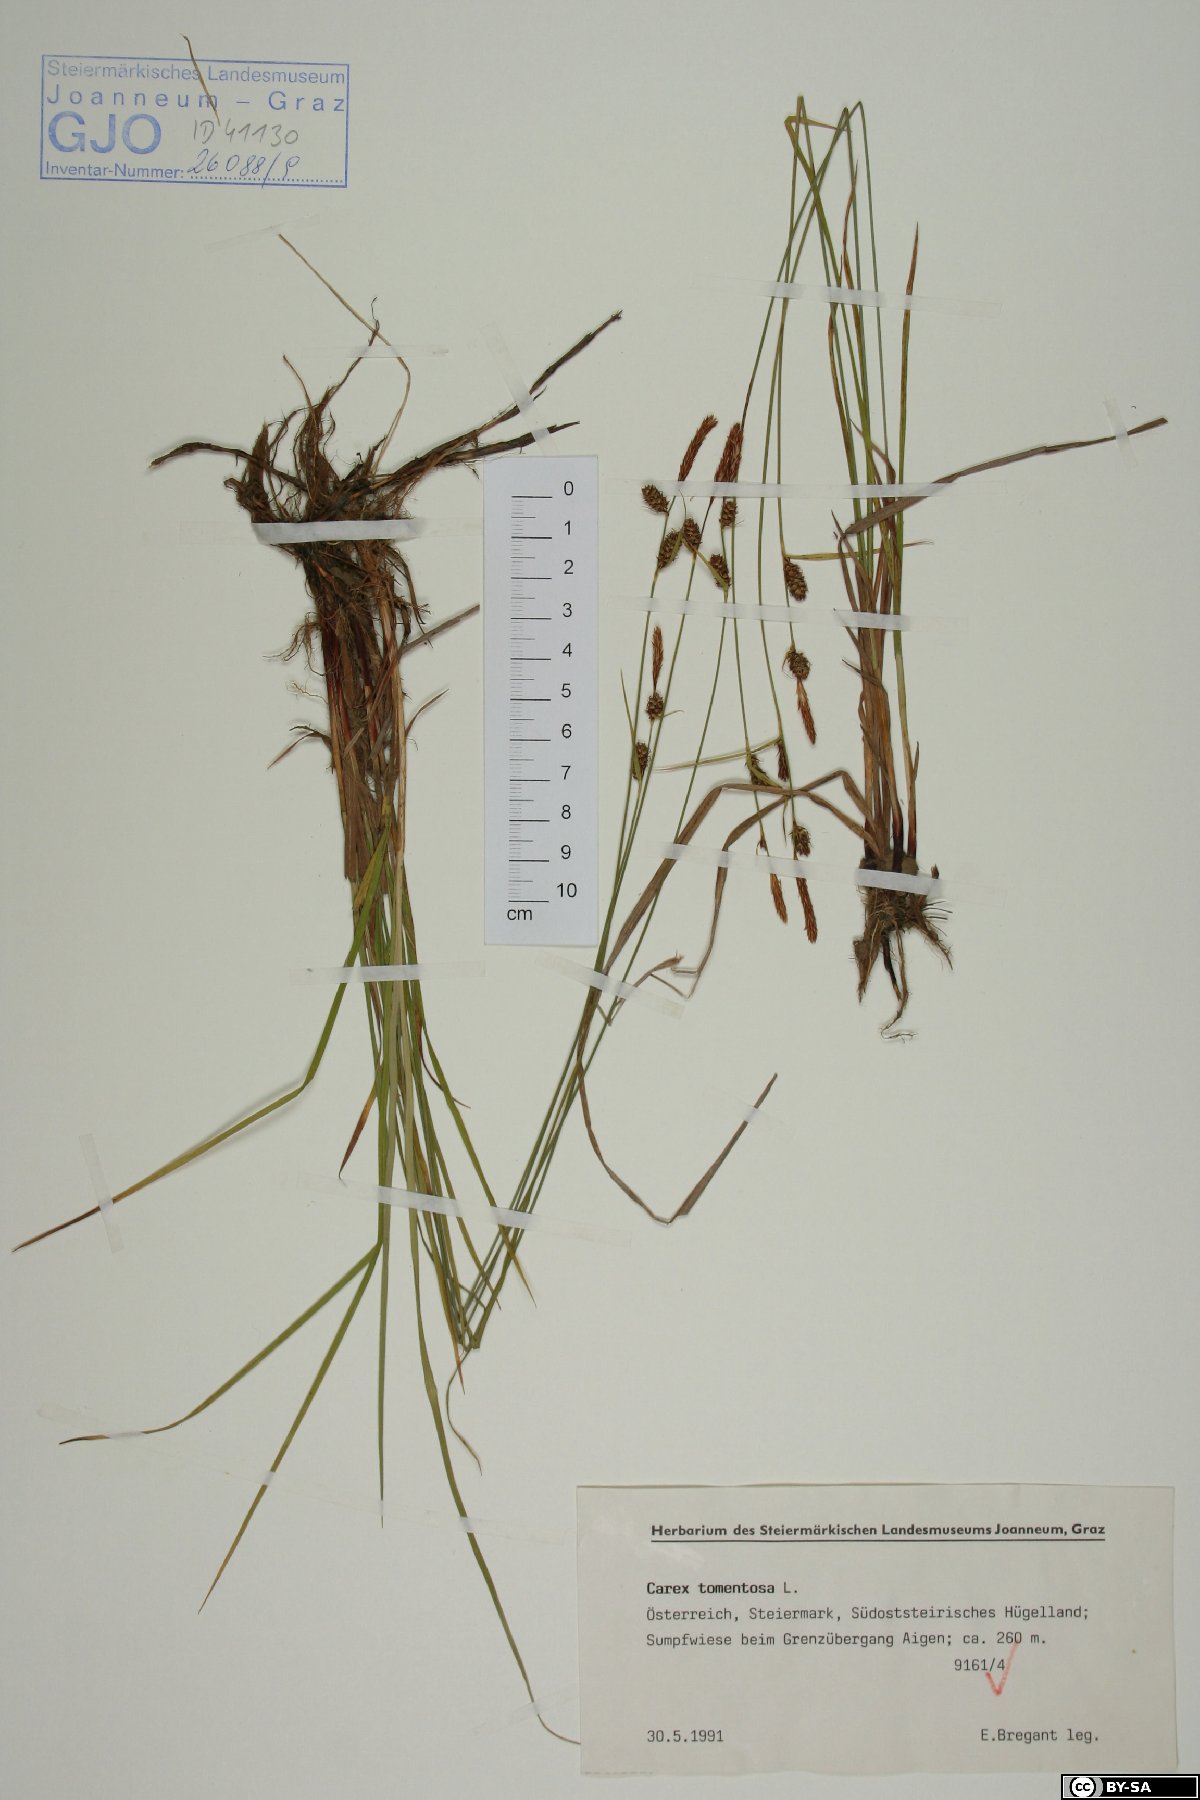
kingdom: Plantae
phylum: Tracheophyta
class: Liliopsida
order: Poales
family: Cyperaceae
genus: Carex
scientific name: Carex tomentosa
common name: Downy-fruited sedge
